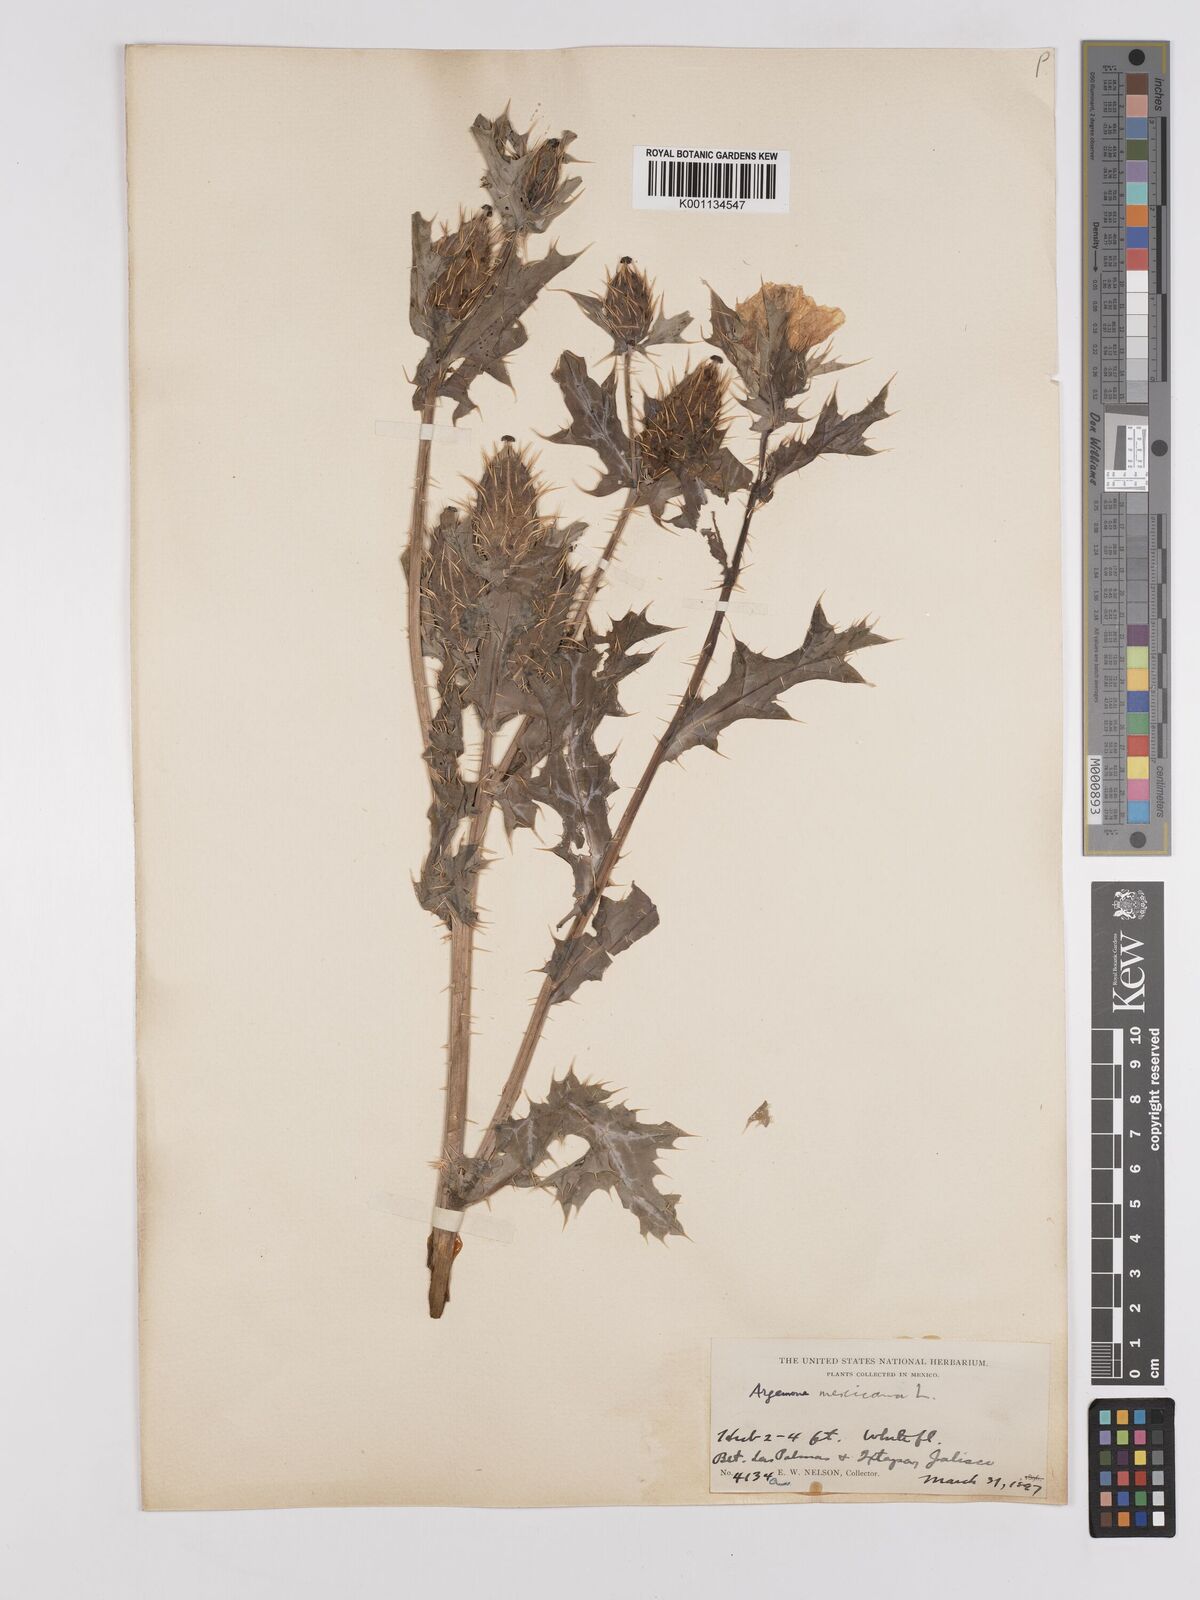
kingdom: Plantae
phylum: Tracheophyta
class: Magnoliopsida
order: Ranunculales
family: Papaveraceae
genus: Argemone
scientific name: Argemone mexicana
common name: Mexican poppy
